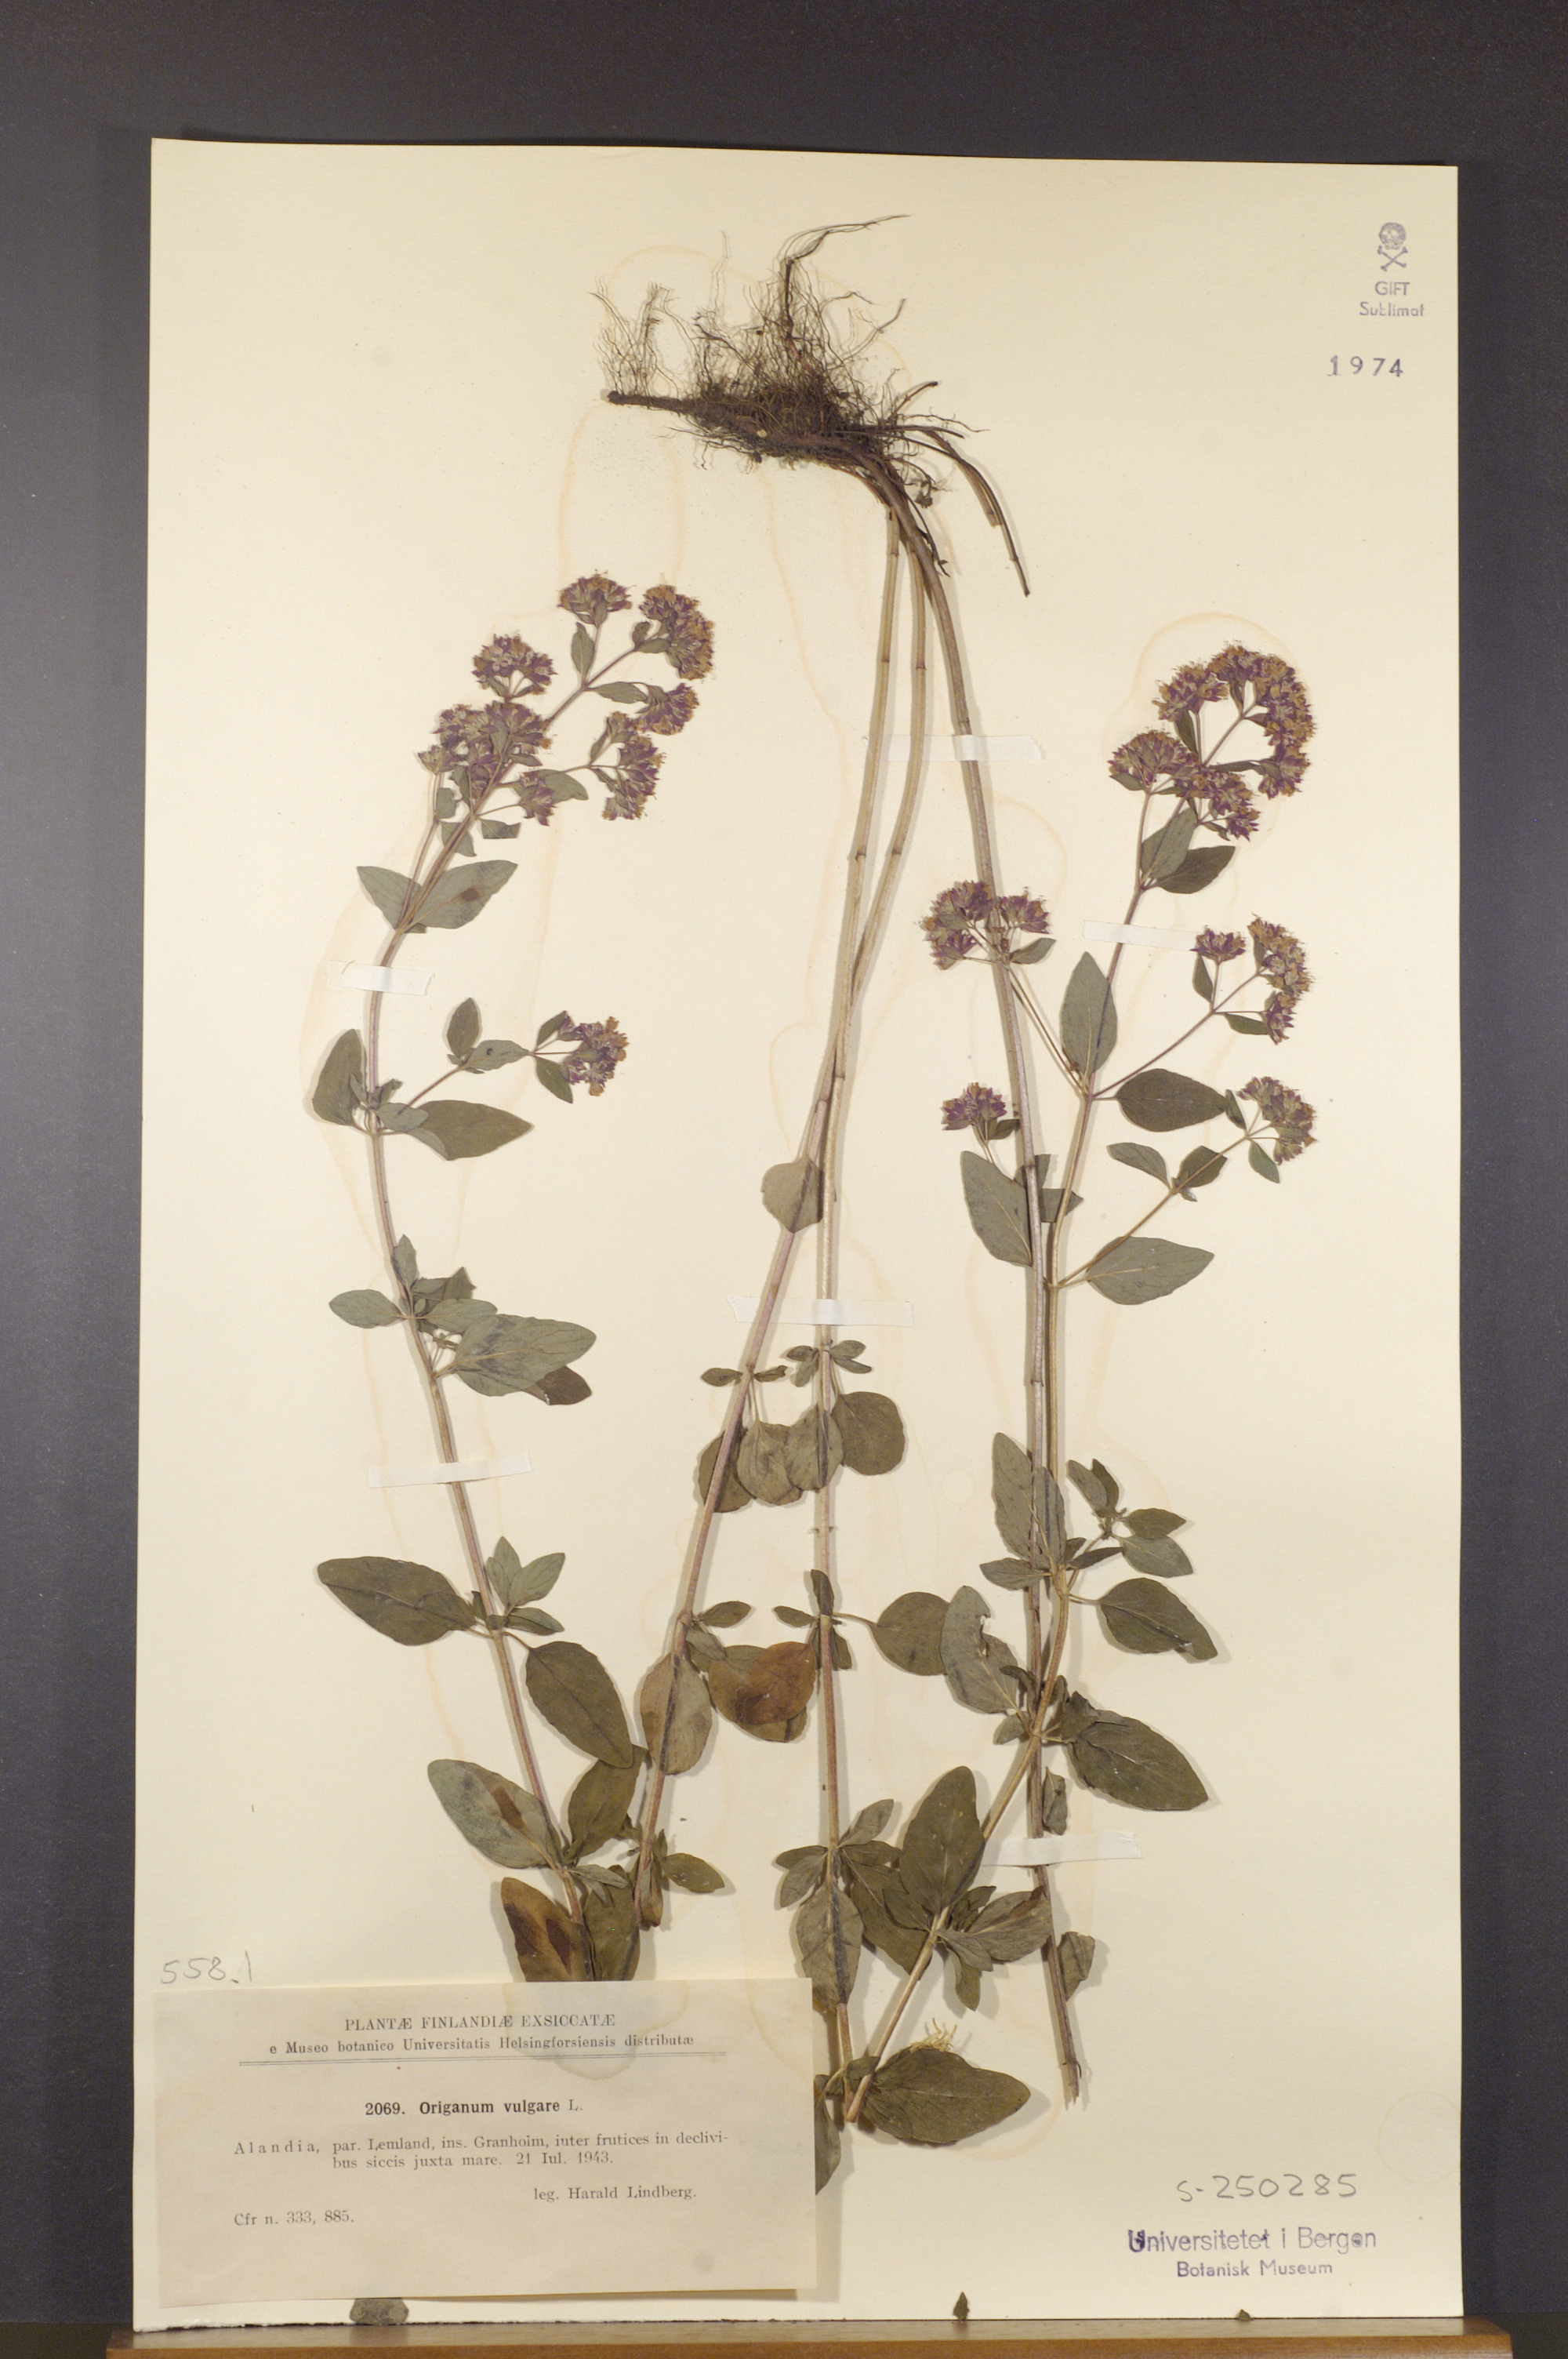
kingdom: Plantae
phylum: Tracheophyta
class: Magnoliopsida
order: Lamiales
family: Lamiaceae
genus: Origanum
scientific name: Origanum vulgare
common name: Wild marjoram
